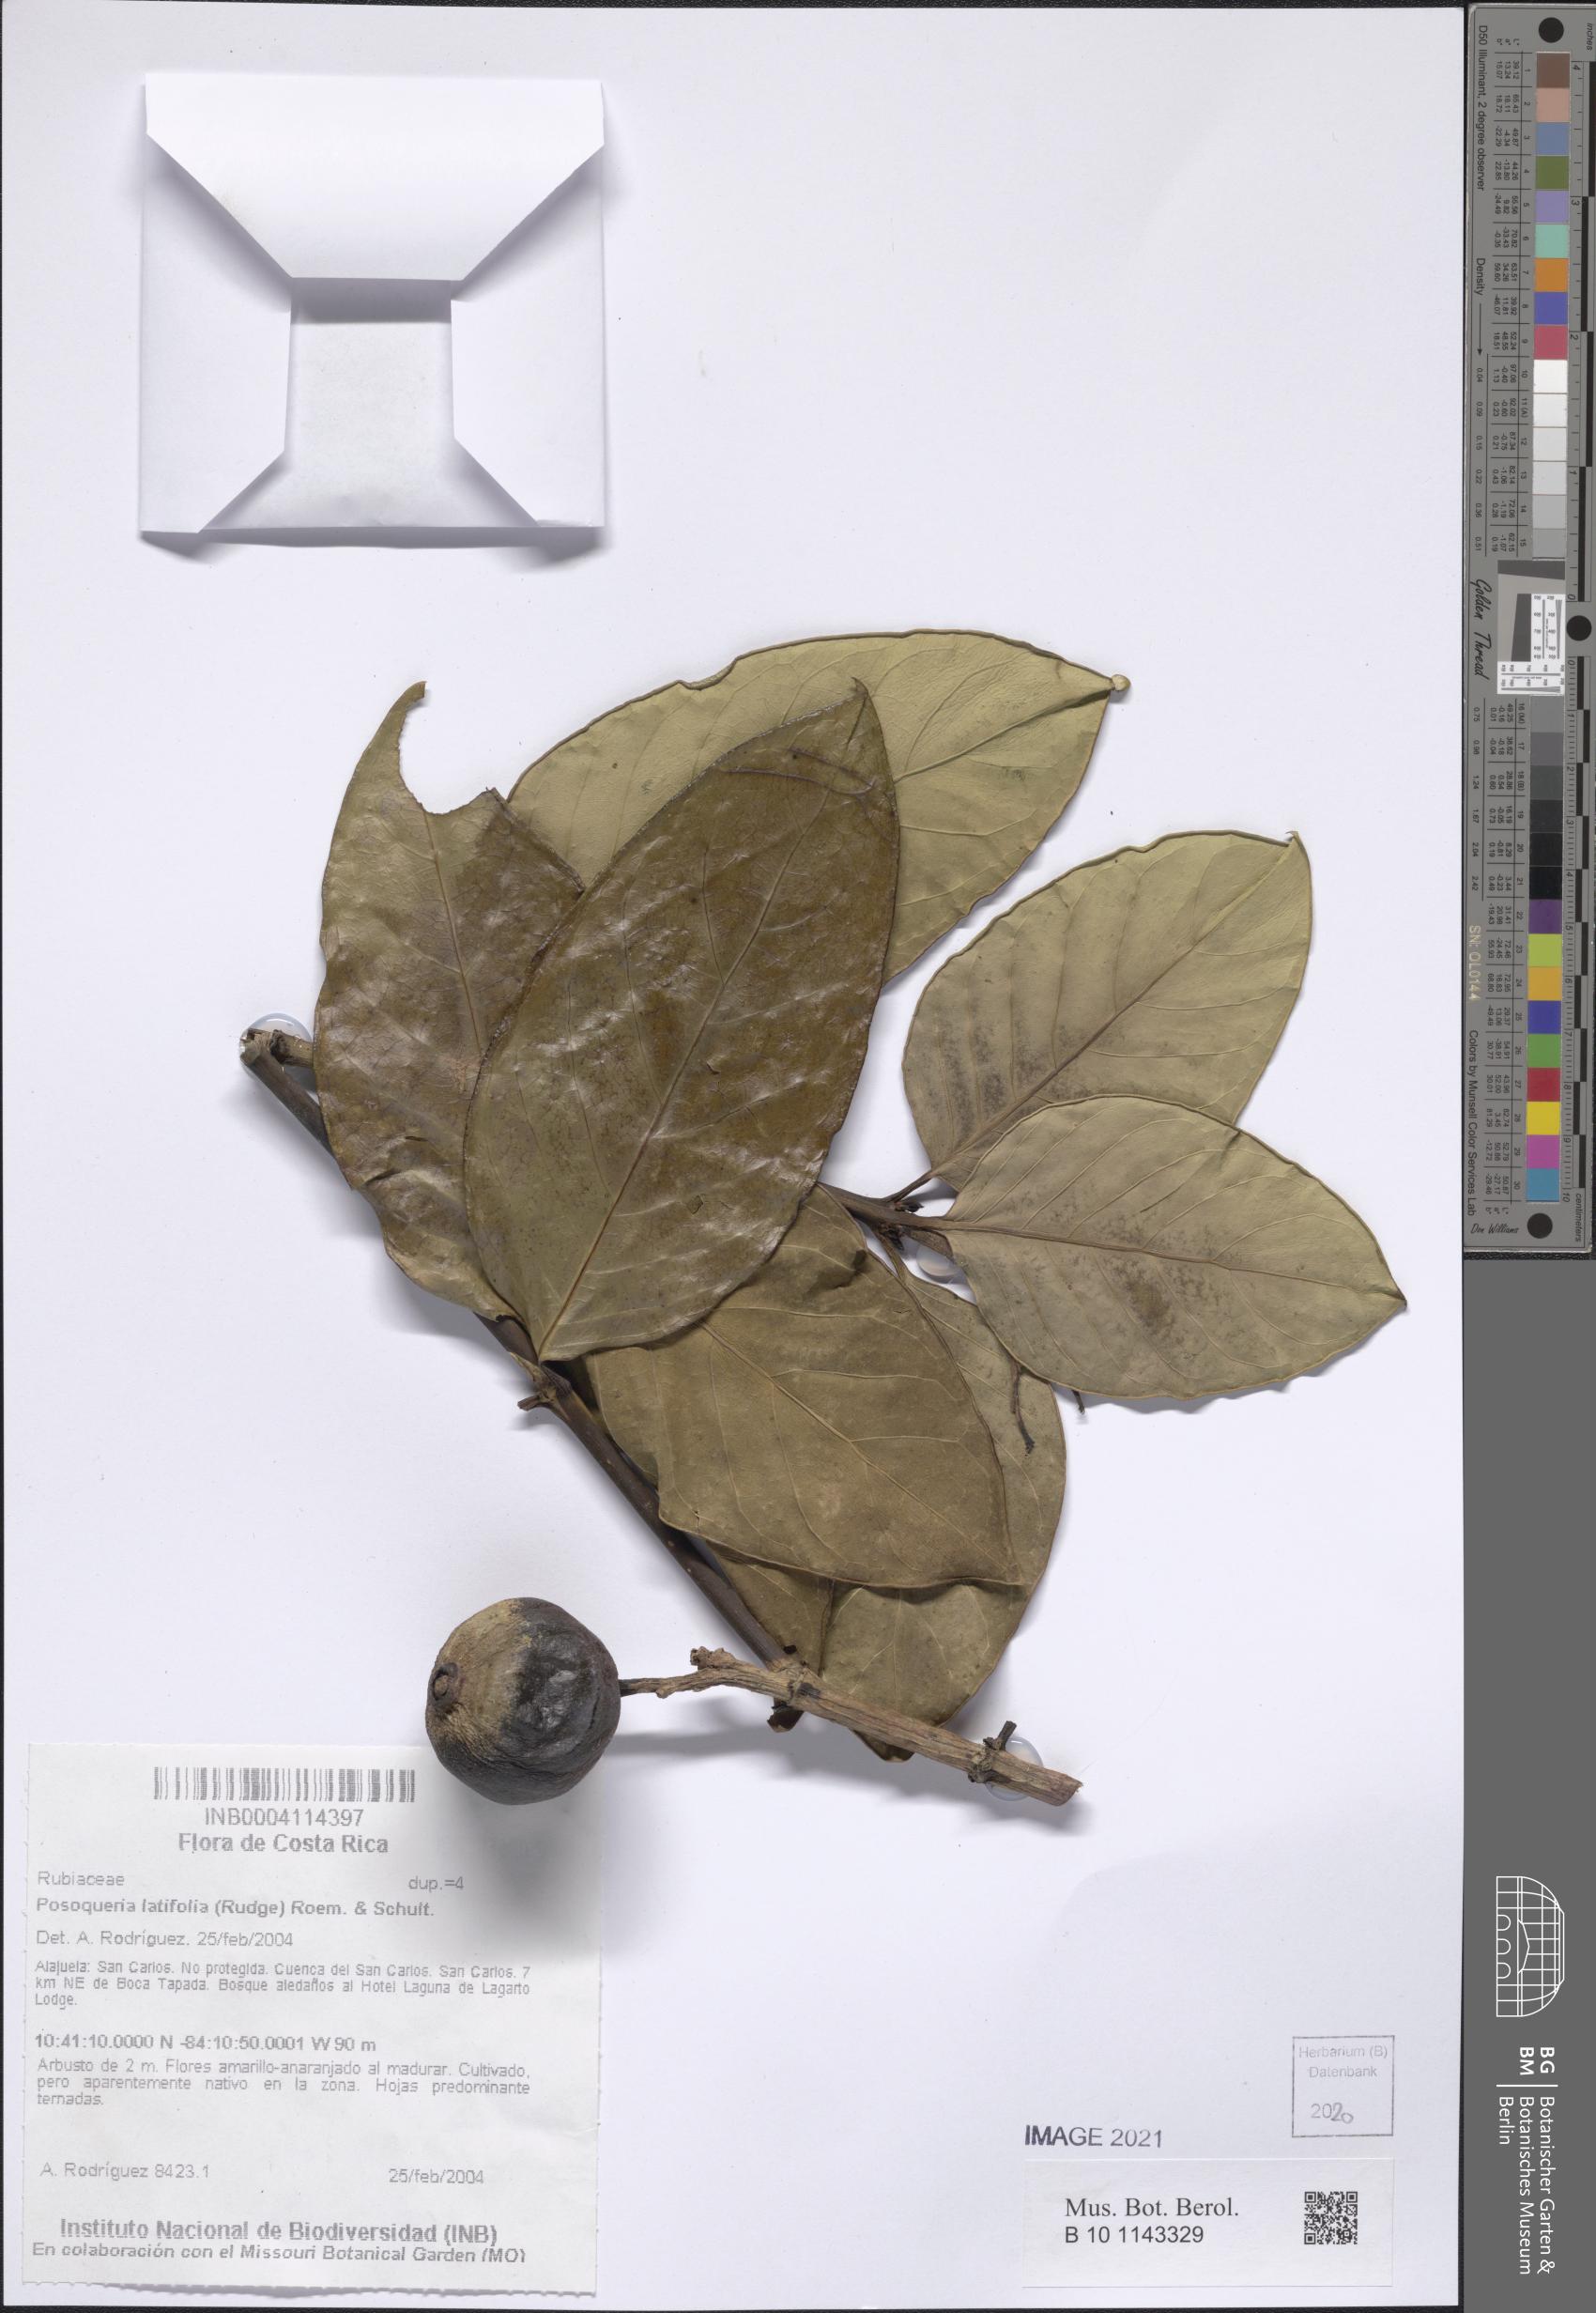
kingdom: Plantae
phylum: Tracheophyta
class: Magnoliopsida
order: Gentianales
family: Rubiaceae
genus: Posoqueria
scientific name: Posoqueria latifolia
